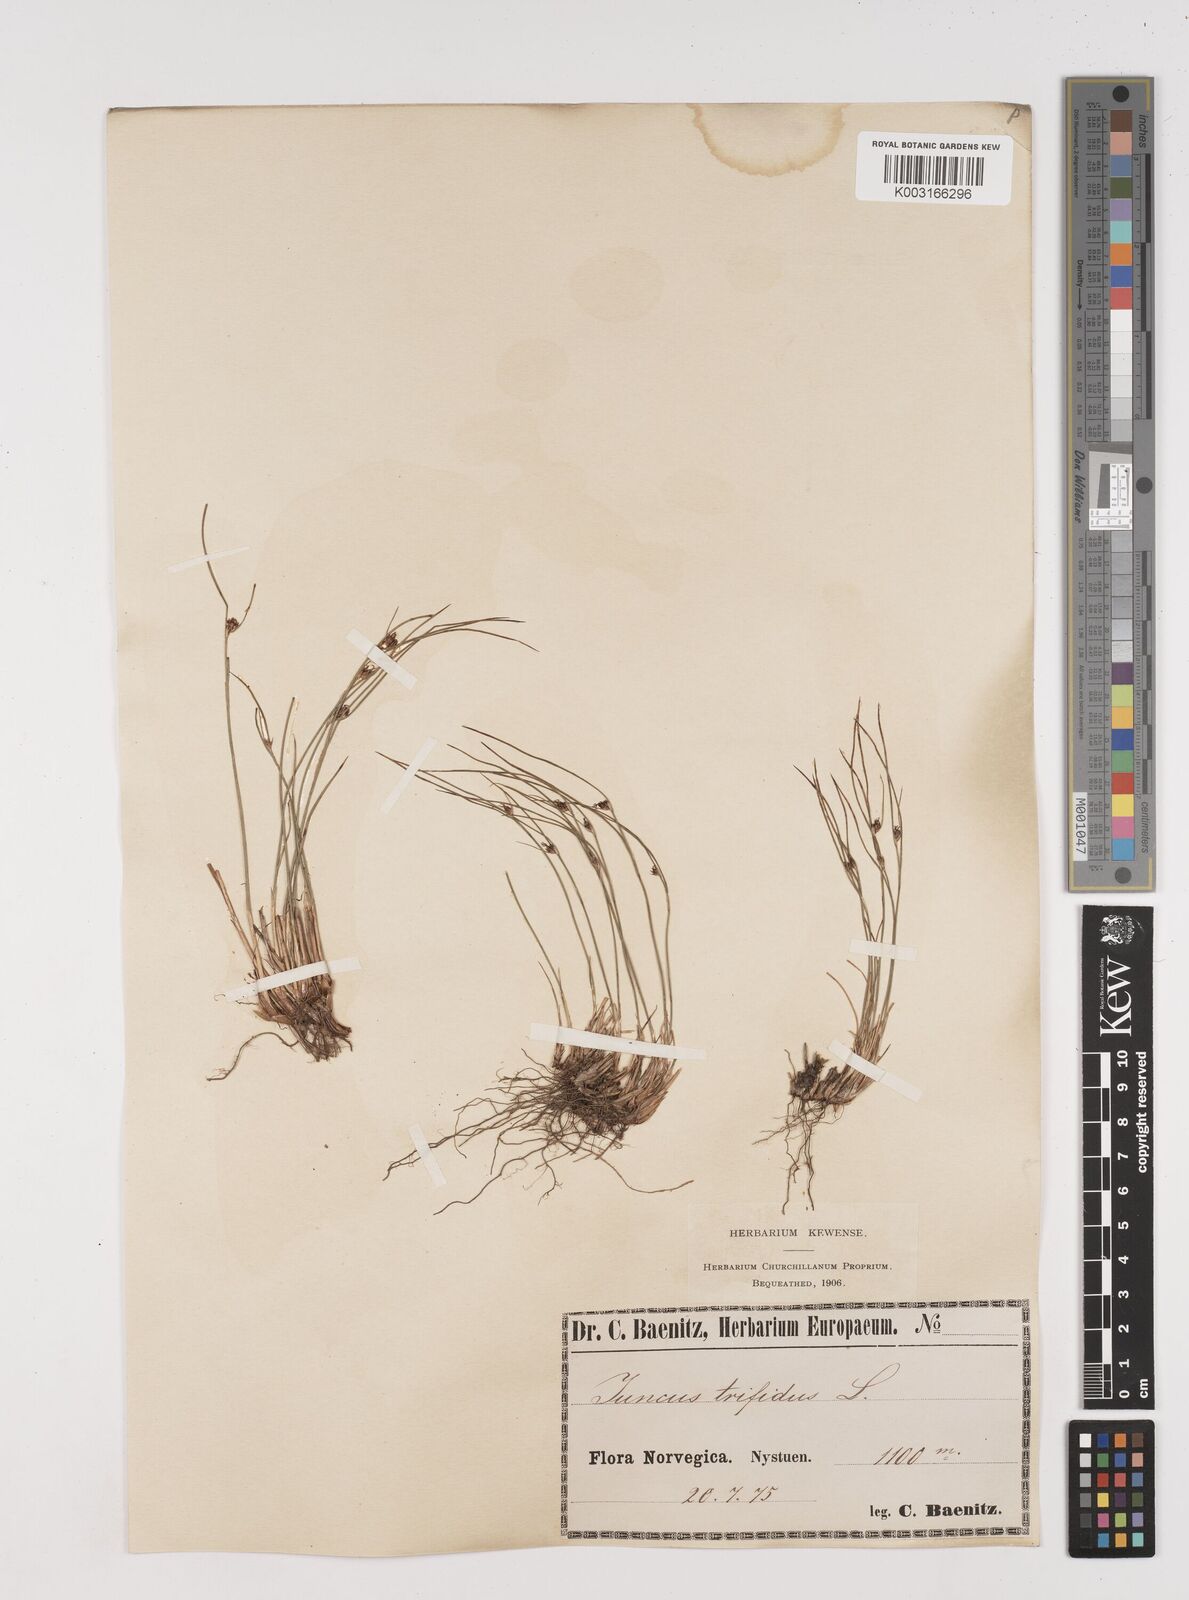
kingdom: Plantae
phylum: Tracheophyta
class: Liliopsida
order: Poales
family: Juncaceae
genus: Oreojuncus
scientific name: Oreojuncus trifidus
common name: Highland rush
